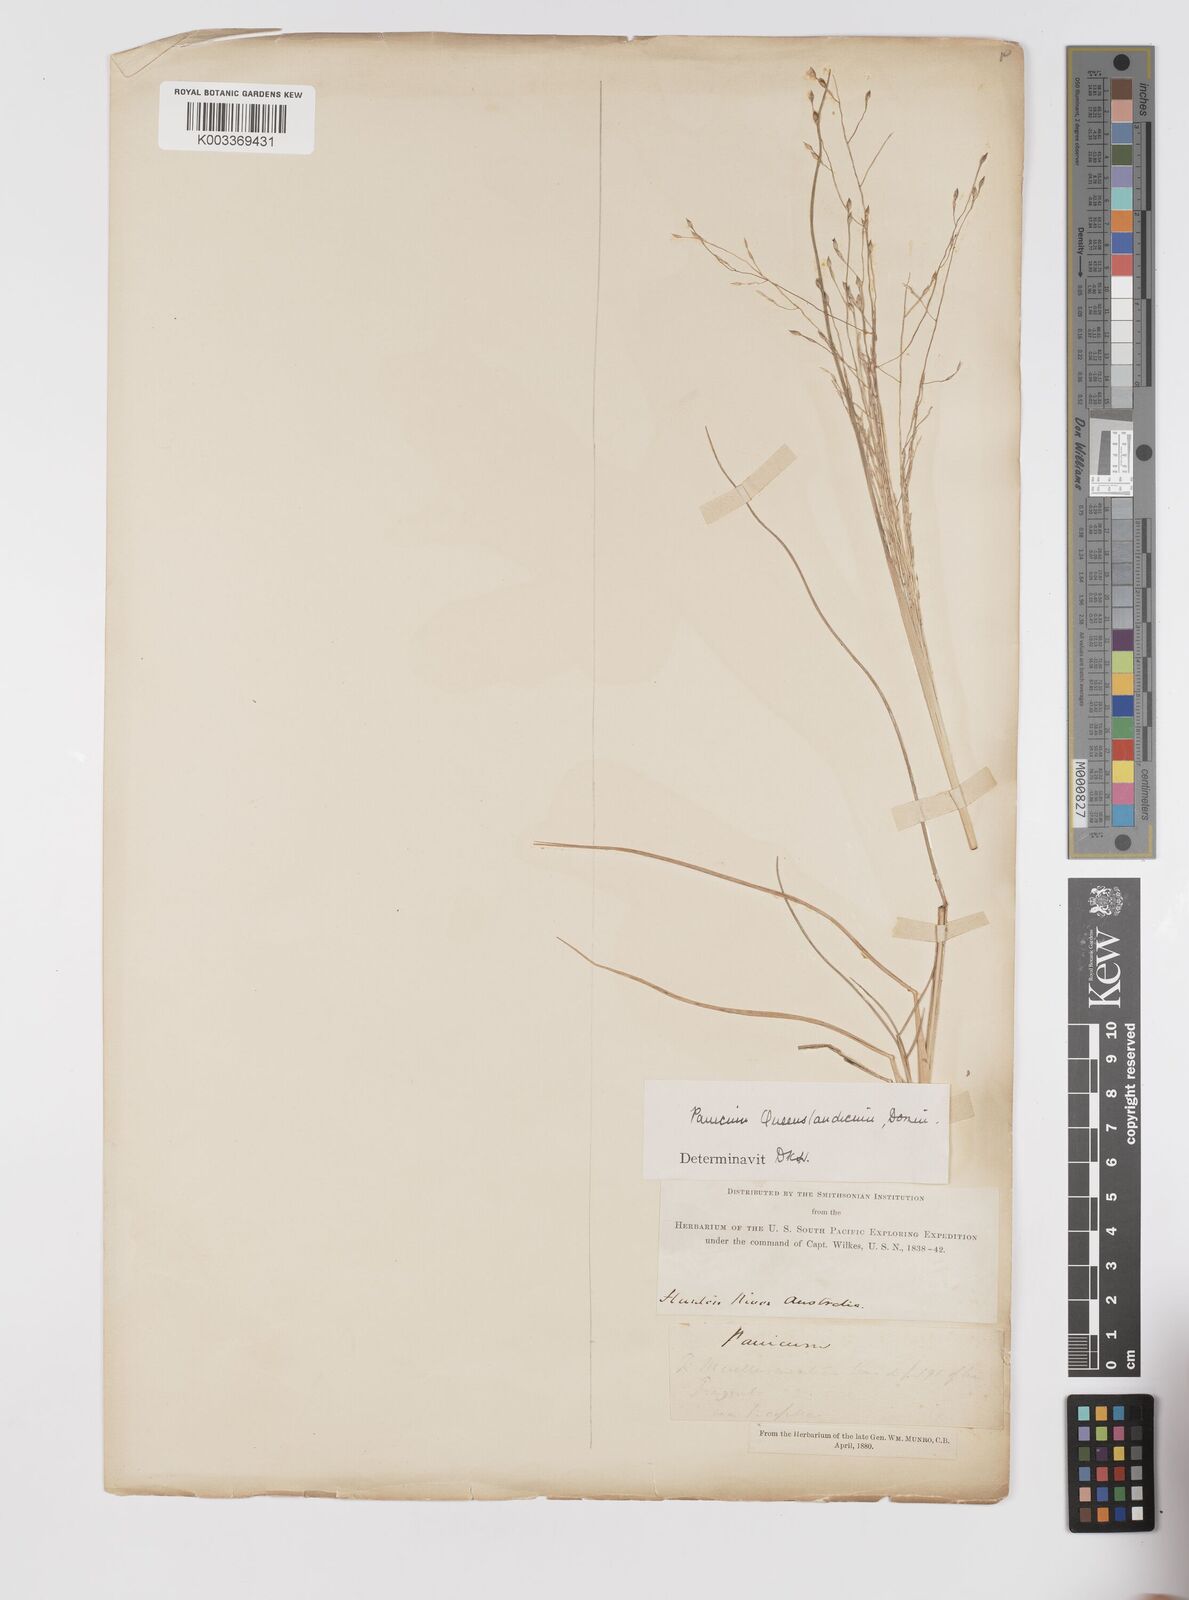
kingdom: Plantae
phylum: Tracheophyta
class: Liliopsida
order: Poales
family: Poaceae
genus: Panicum
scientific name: Panicum queenslandicum
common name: Yabila grass
